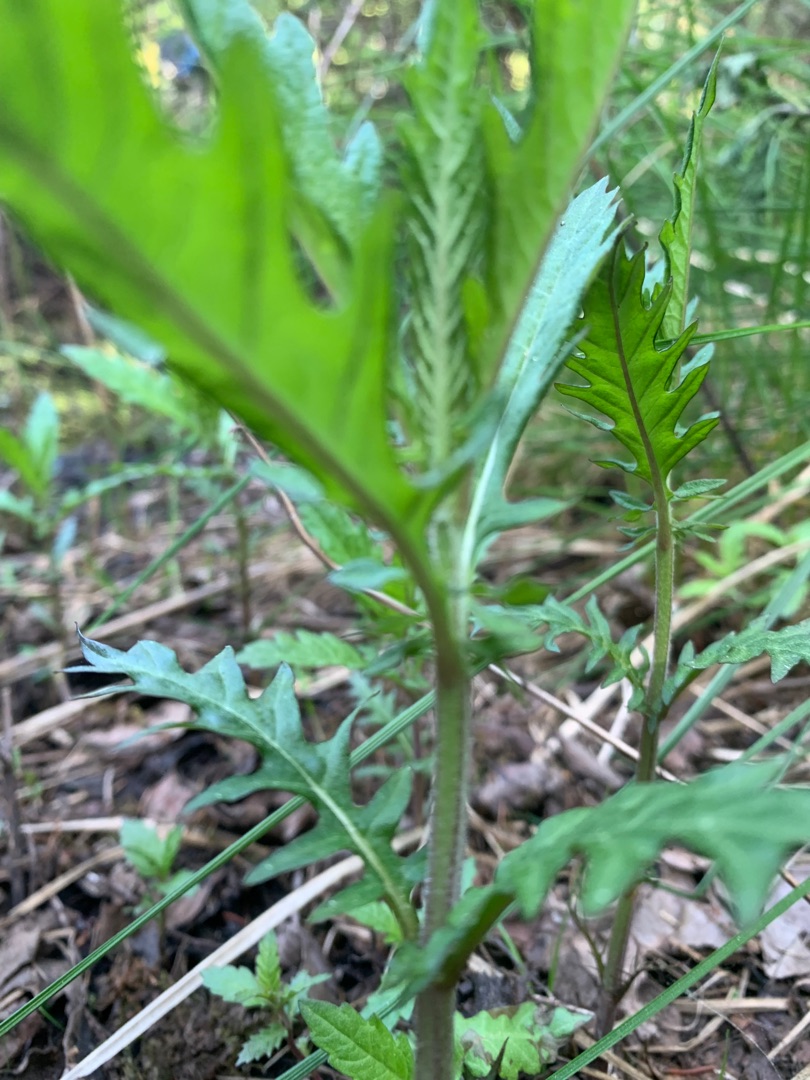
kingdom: Plantae
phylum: Tracheophyta
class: Magnoliopsida
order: Lamiales
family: Lamiaceae
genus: Lycopus
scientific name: Lycopus europaeus
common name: Sværtevæld
